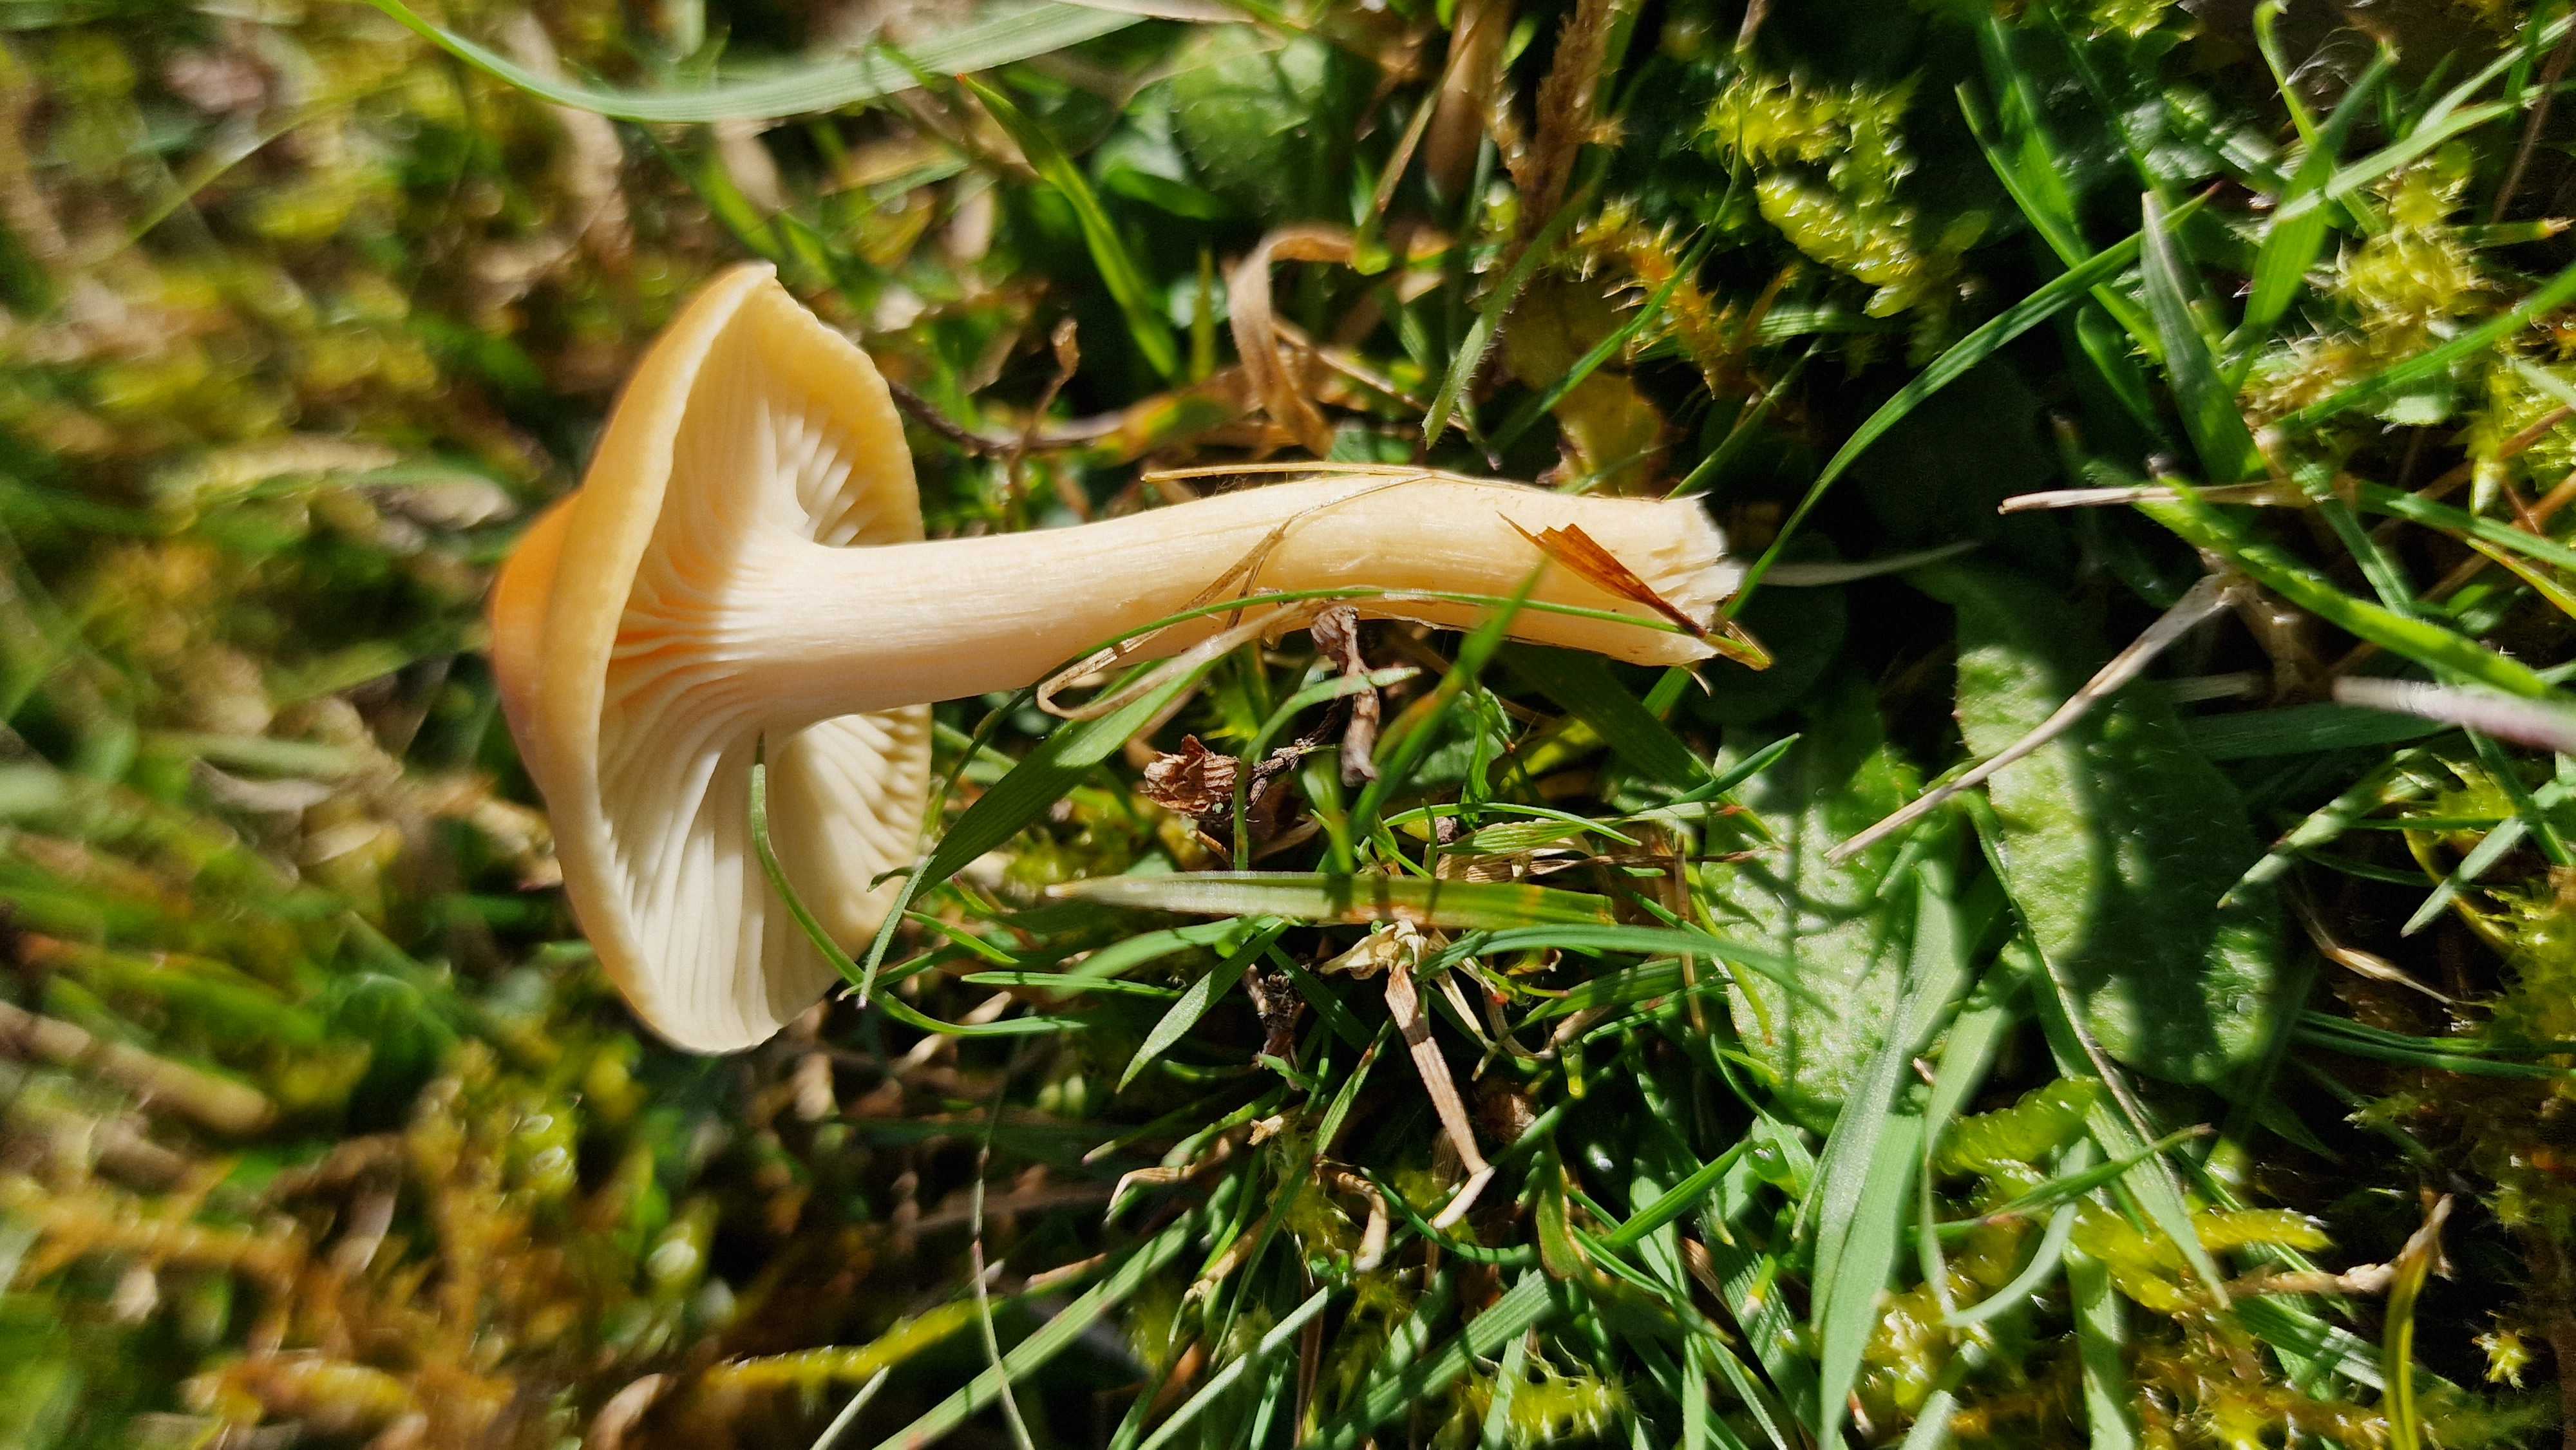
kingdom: Fungi
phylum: Basidiomycota
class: Agaricomycetes
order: Agaricales
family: Hygrophoraceae
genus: Cuphophyllus
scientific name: Cuphophyllus pratensis
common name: eng-vokshat
